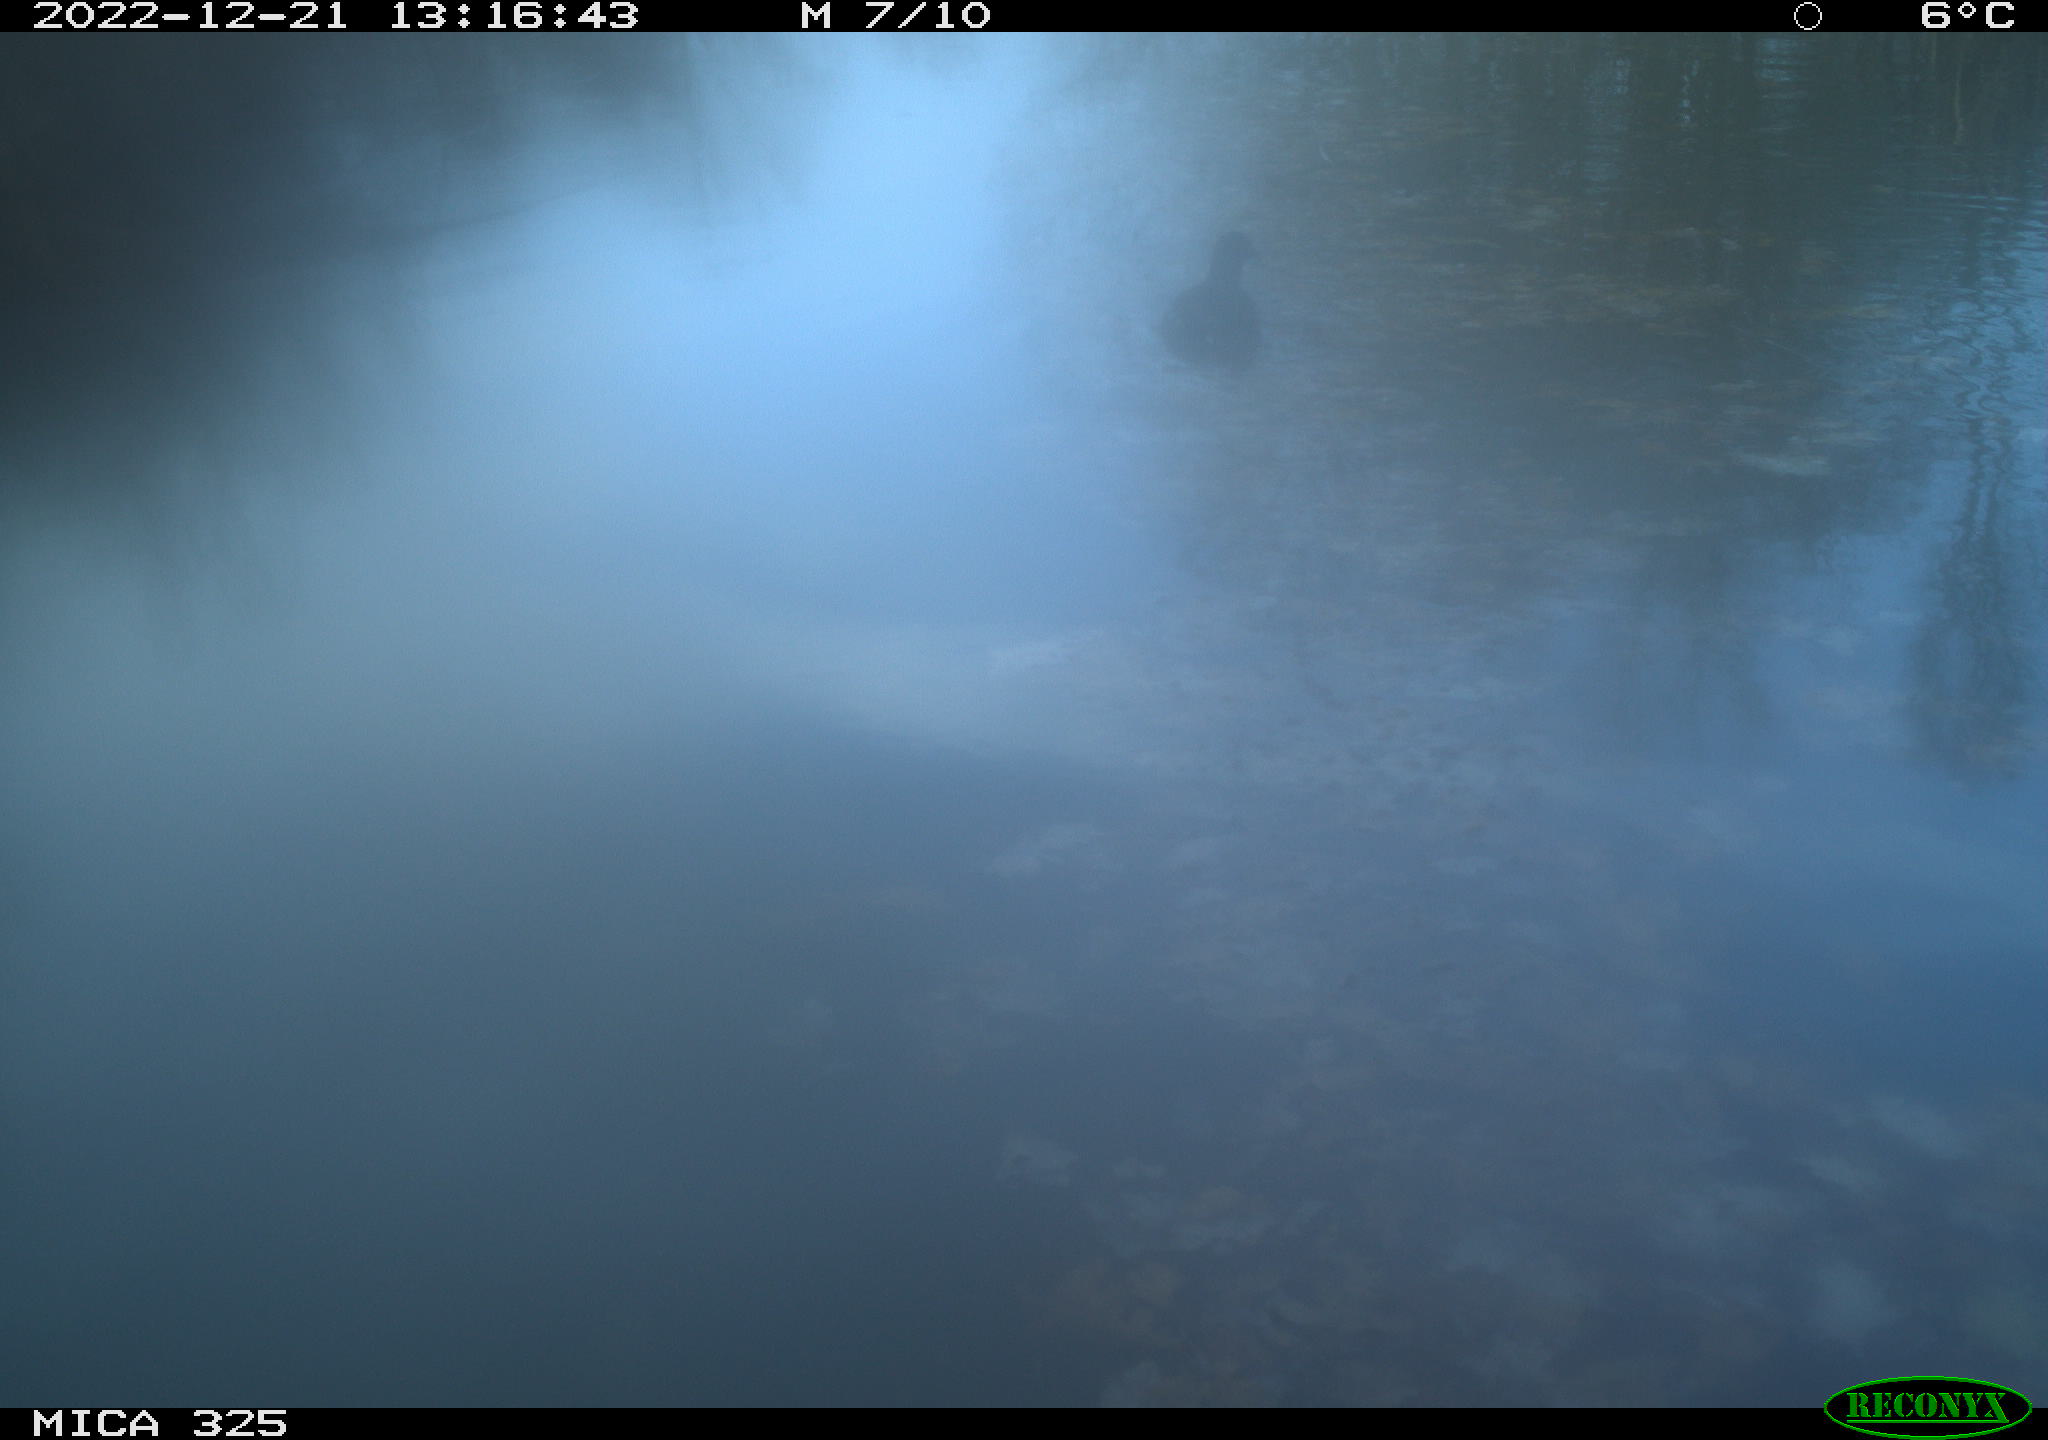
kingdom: Animalia
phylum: Chordata
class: Aves
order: Gruiformes
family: Rallidae
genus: Gallinula
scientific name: Gallinula chloropus
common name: Common moorhen
